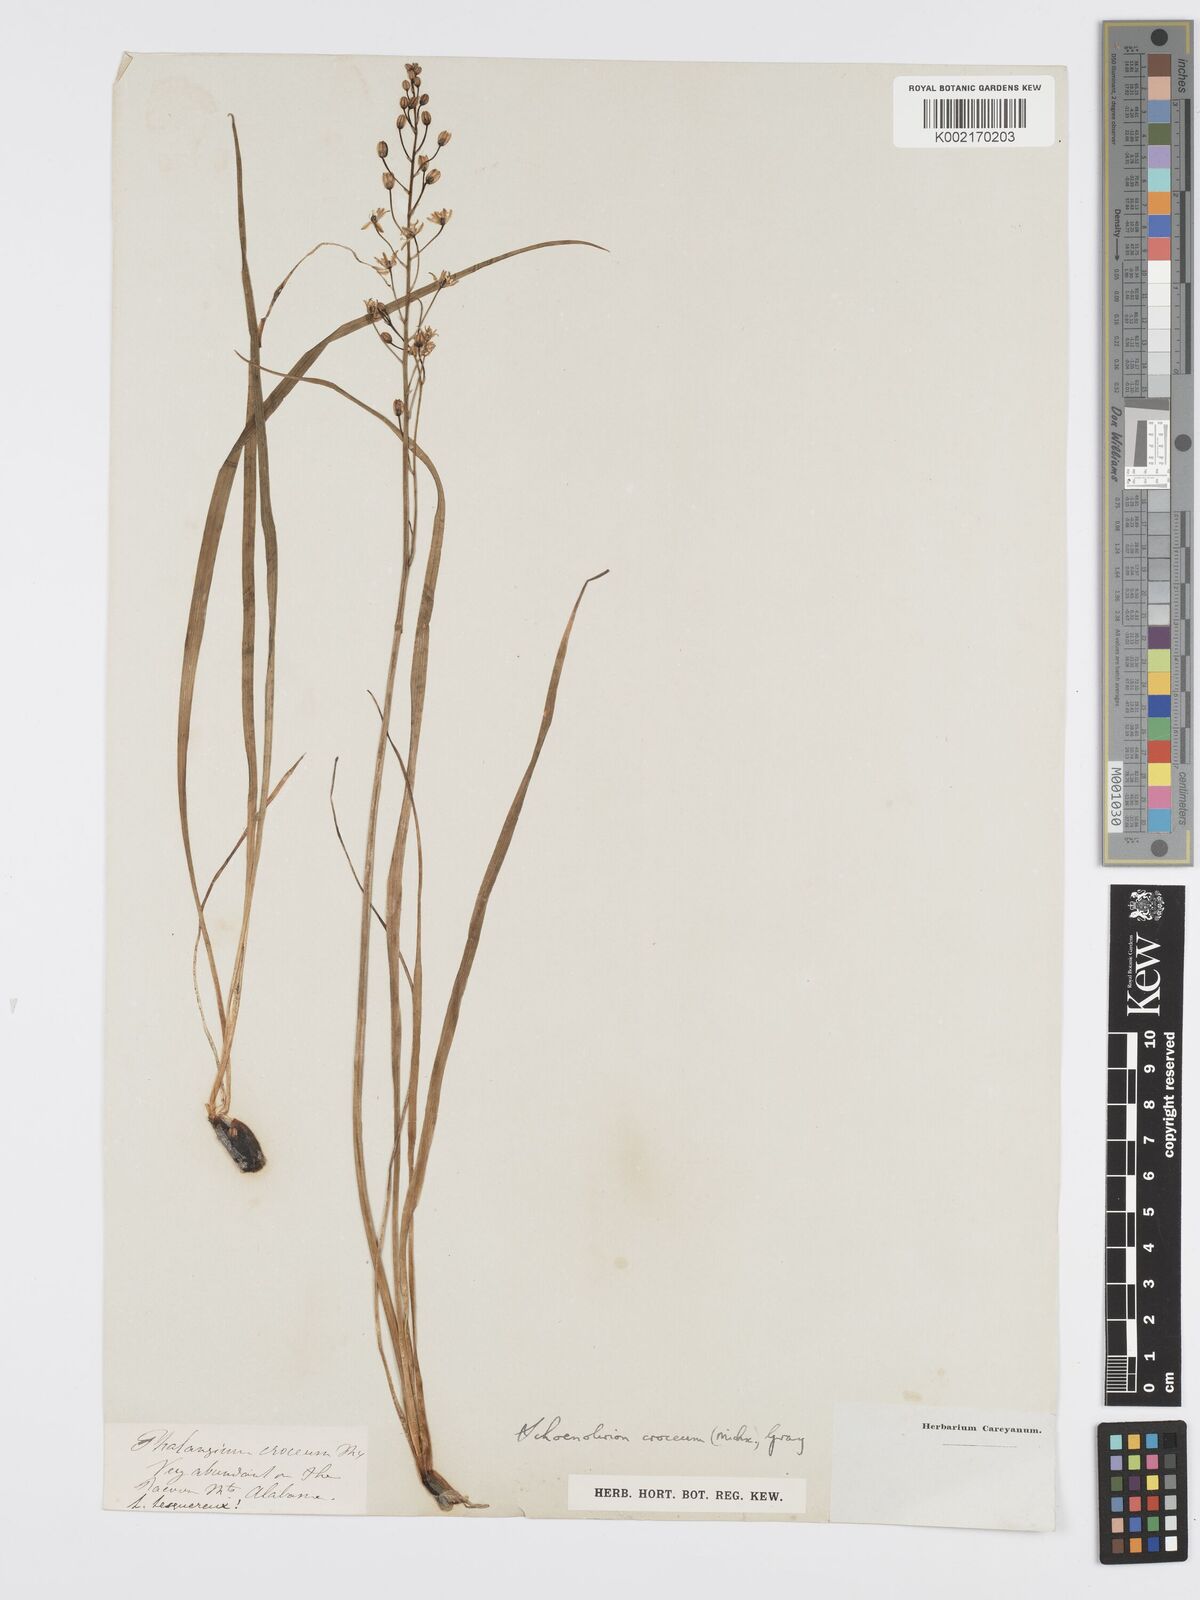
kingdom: Plantae
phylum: Tracheophyta
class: Liliopsida
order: Asparagales
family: Asparagaceae
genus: Schoenolirion
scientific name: Schoenolirion croceum
